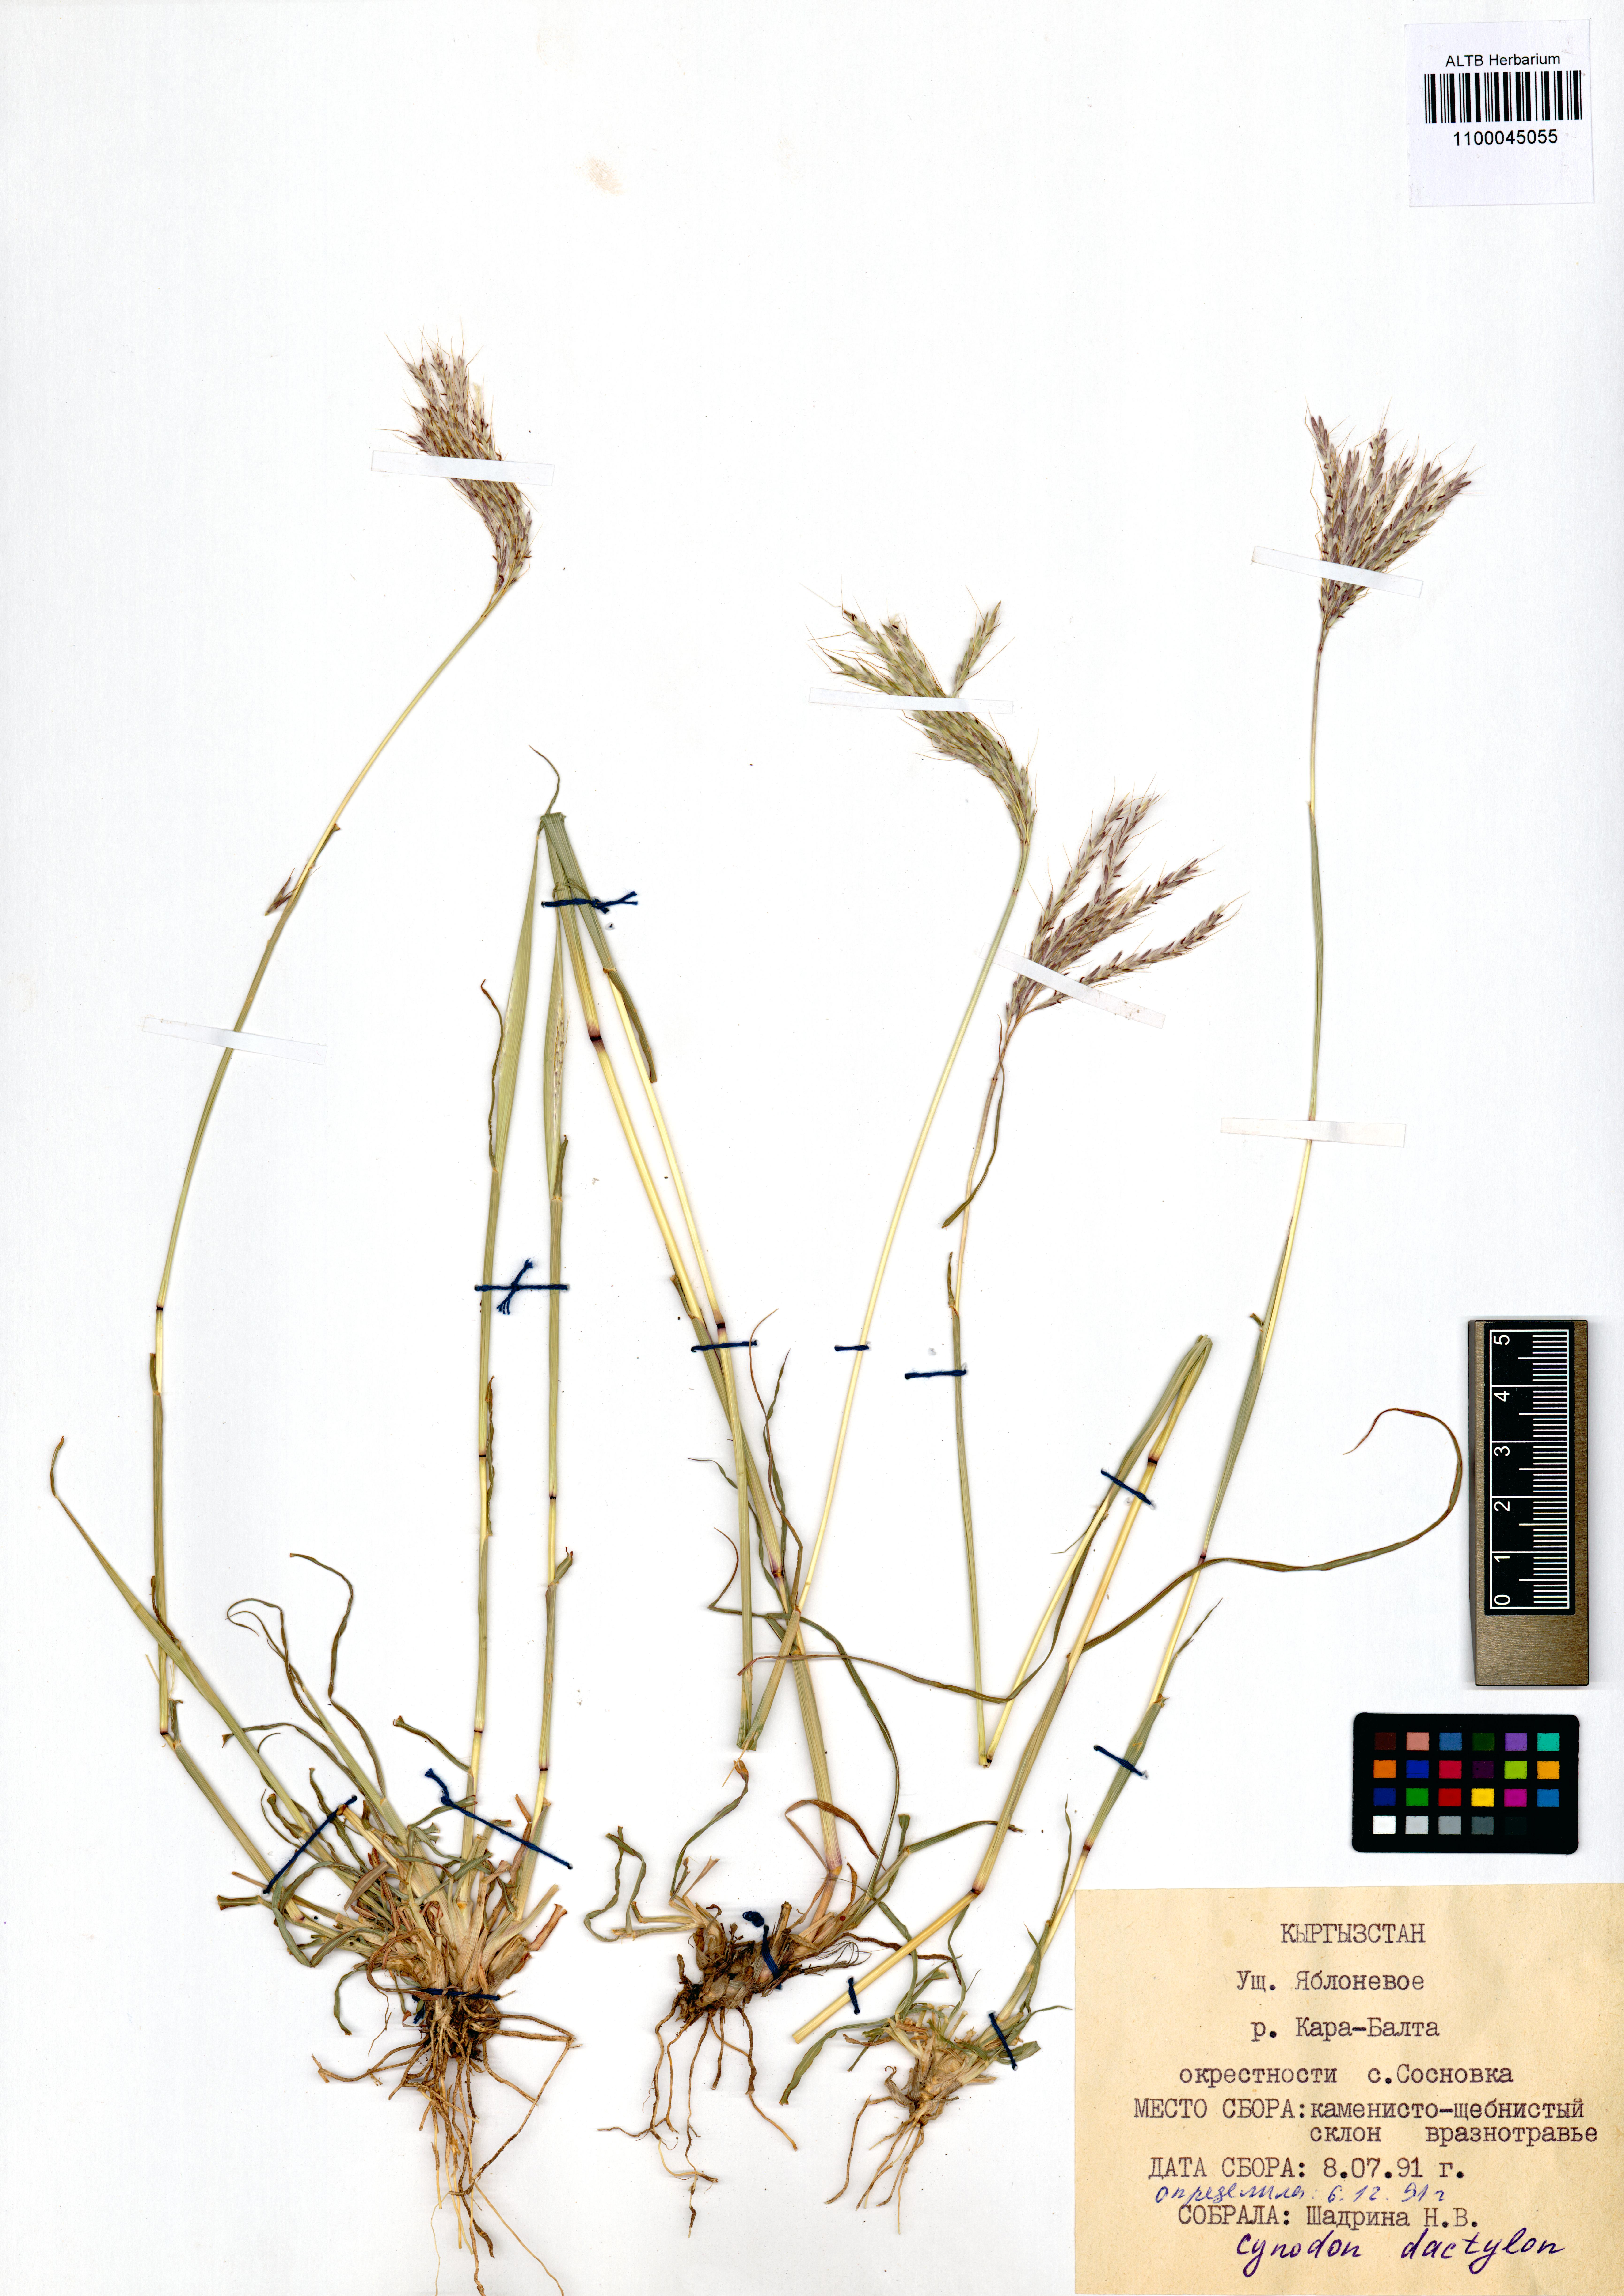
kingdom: Plantae
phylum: Tracheophyta
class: Liliopsida
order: Poales
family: Poaceae
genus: Cynodon
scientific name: Cynodon dactylon
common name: Bermuda grass
